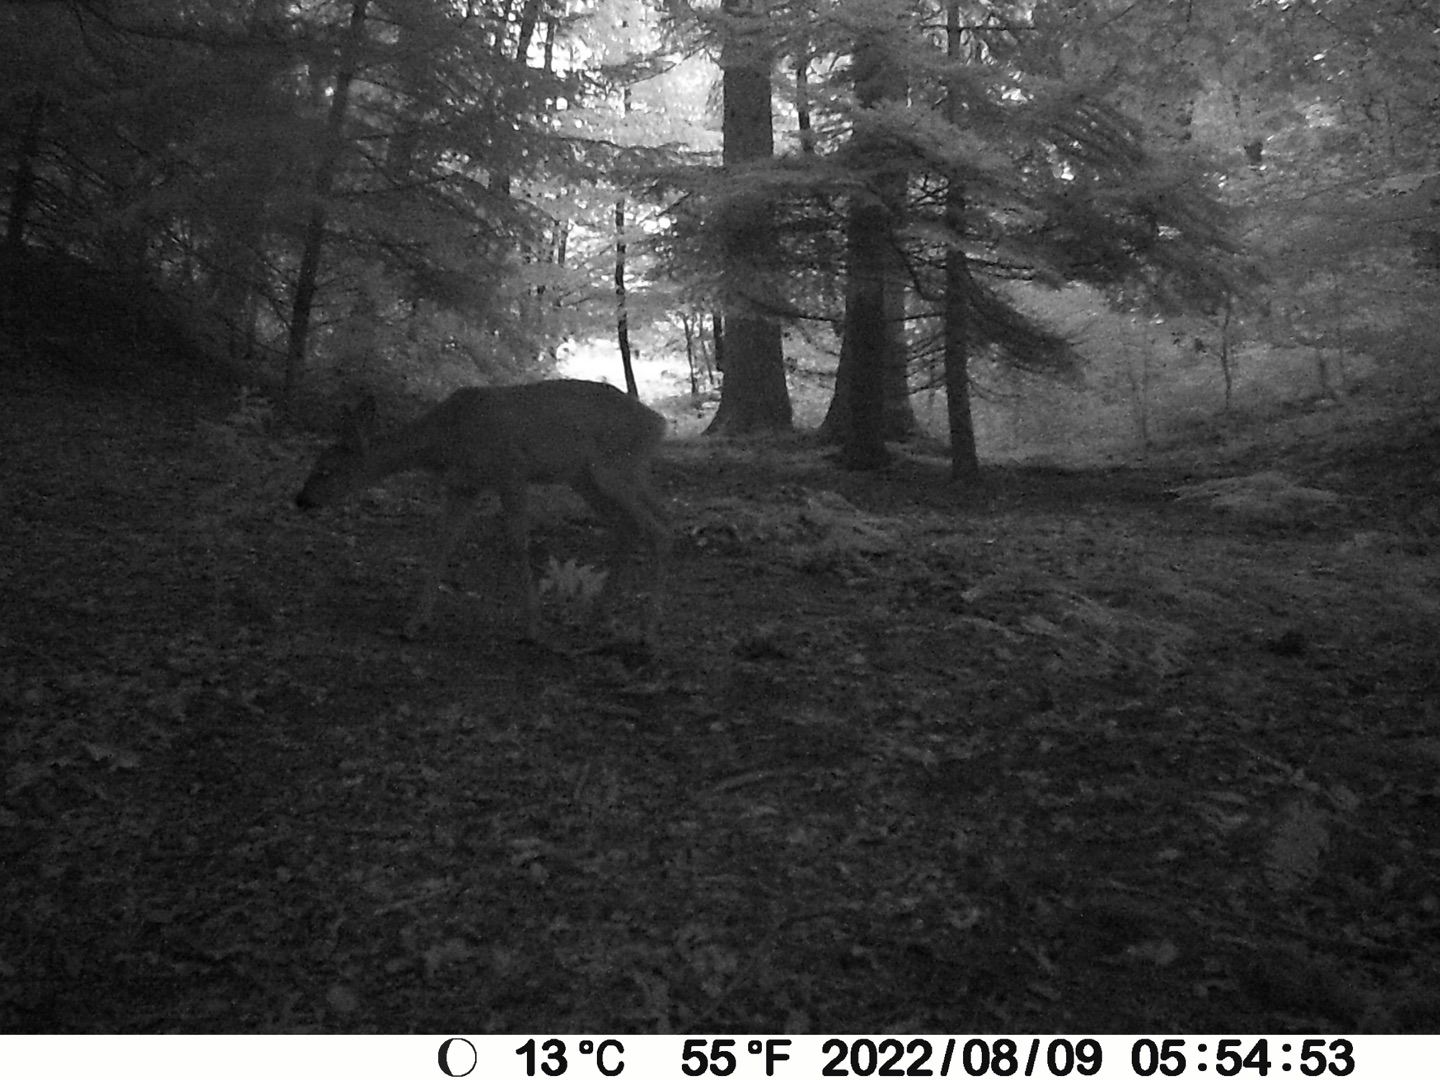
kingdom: Animalia
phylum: Chordata
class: Mammalia
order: Artiodactyla
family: Cervidae
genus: Capreolus
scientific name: Capreolus capreolus
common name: Rådyr
